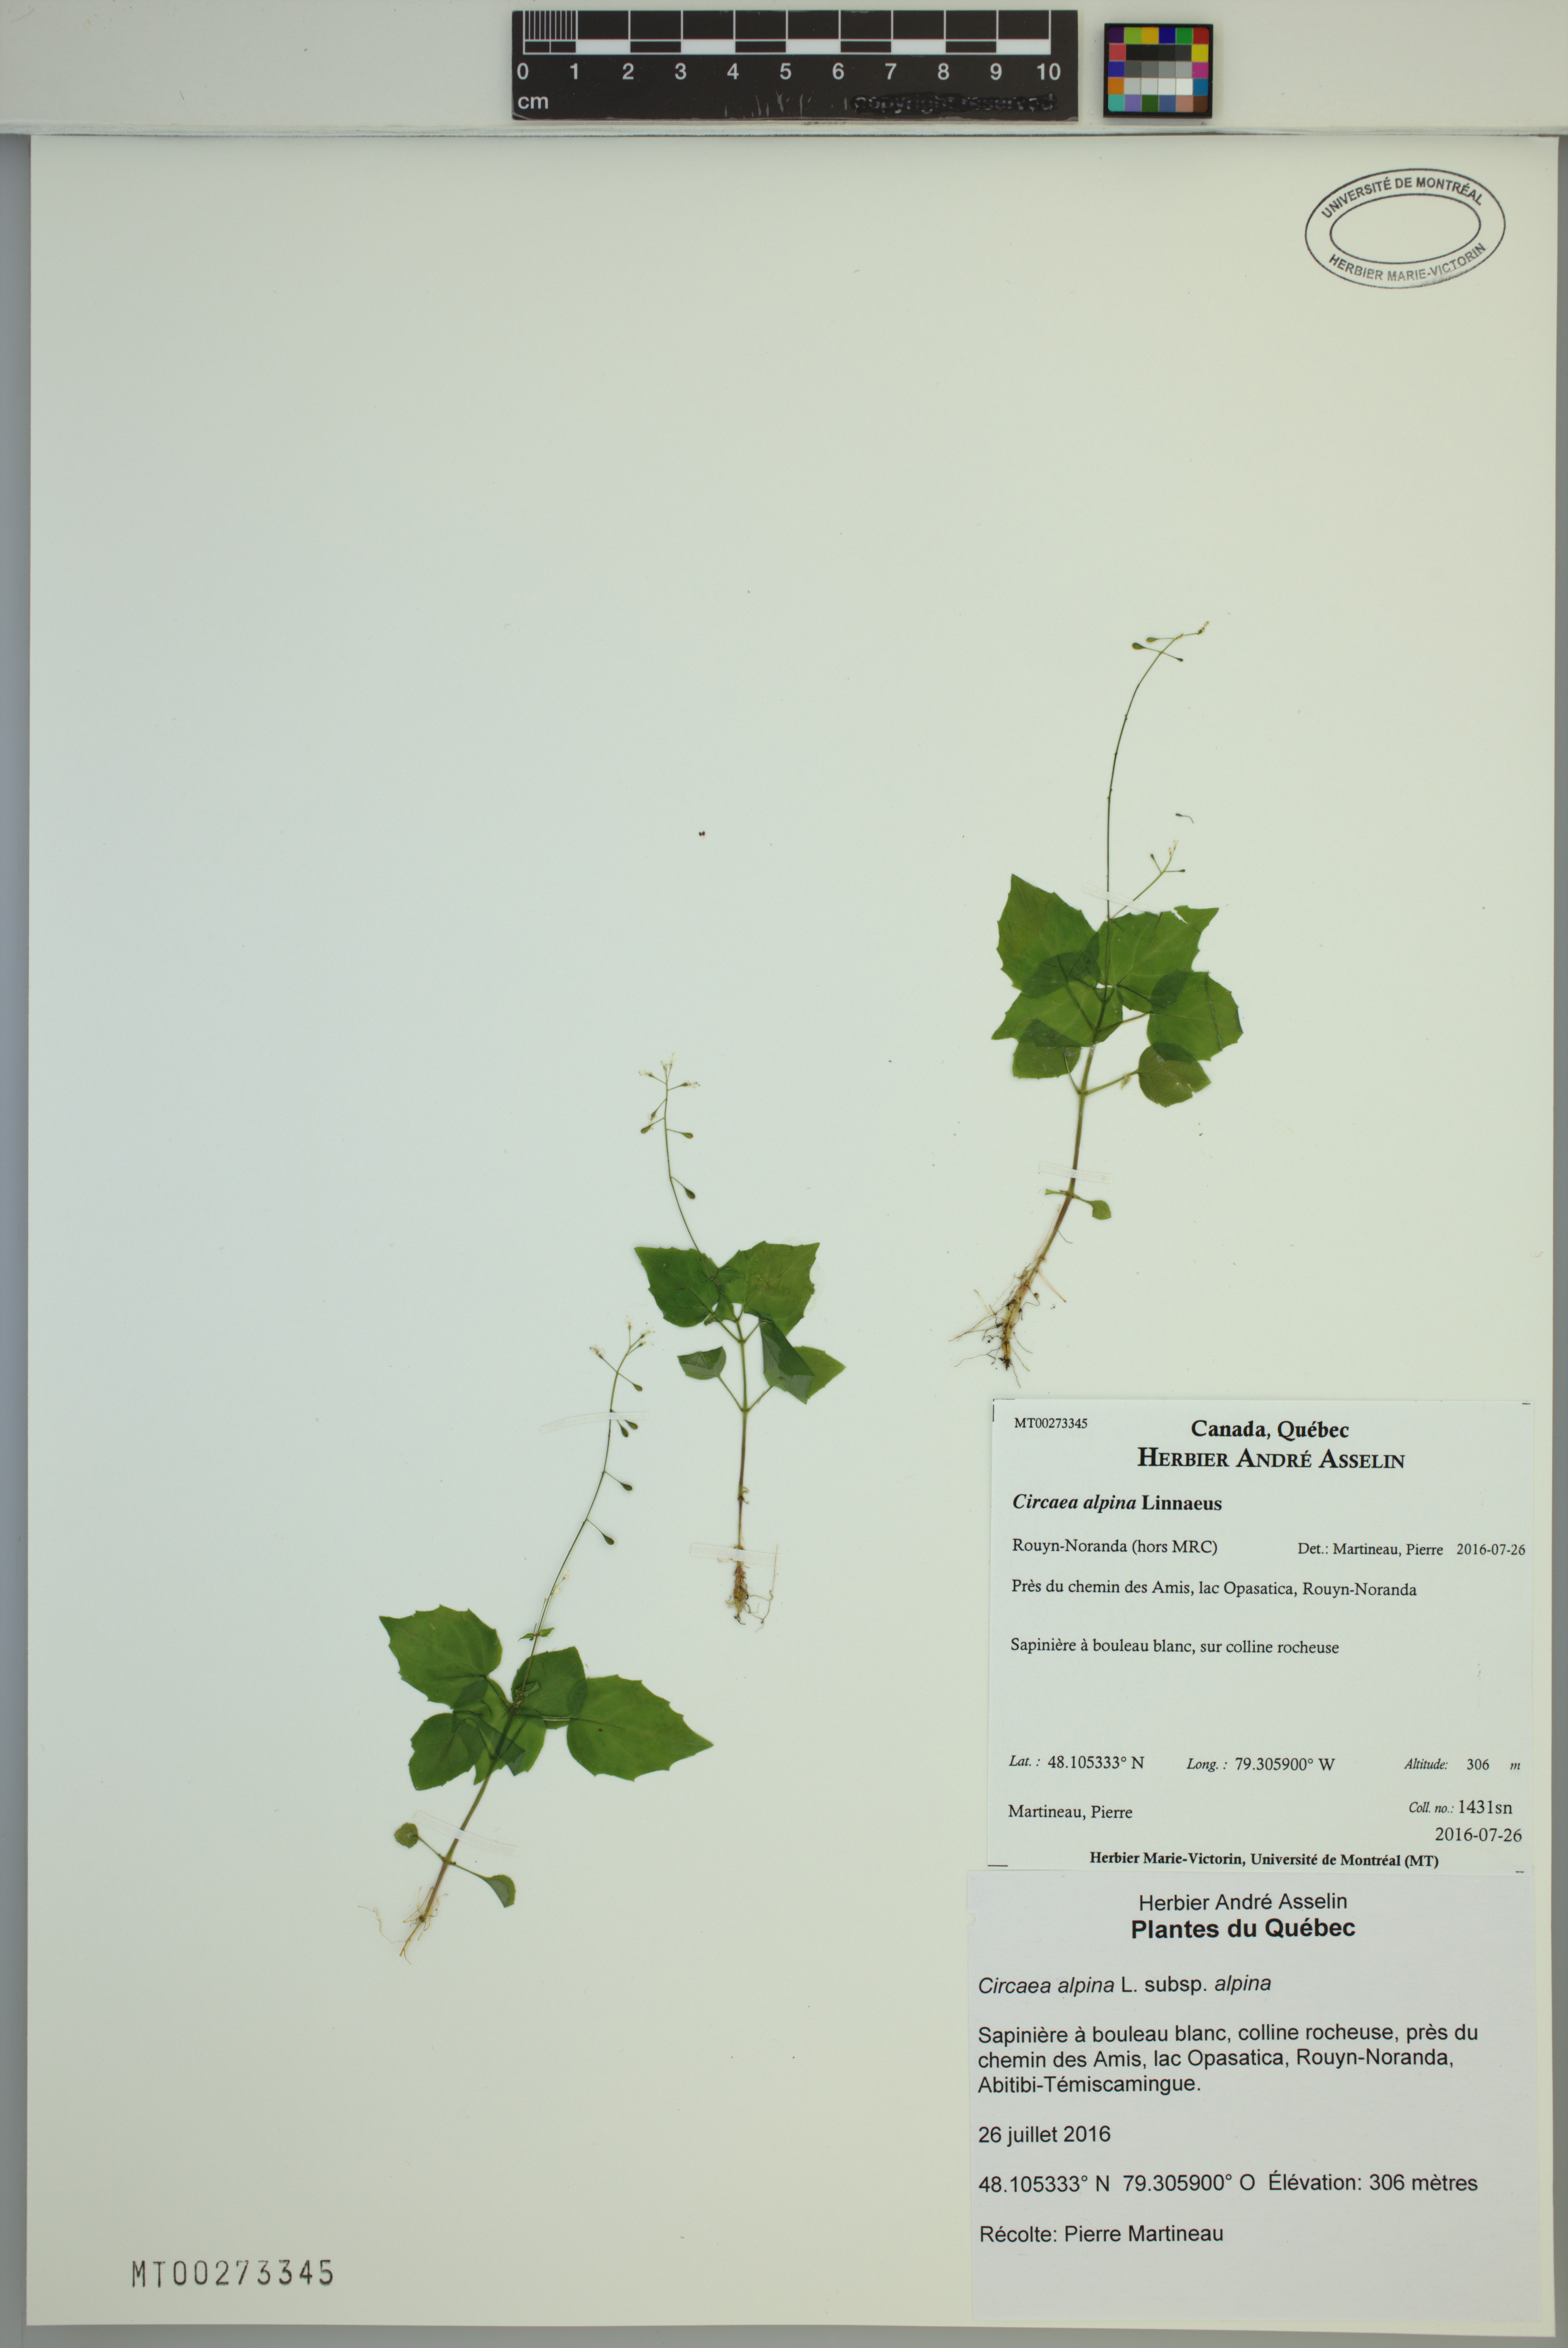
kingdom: Plantae
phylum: Tracheophyta
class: Magnoliopsida
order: Myrtales
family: Onagraceae
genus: Circaea
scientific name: Circaea alpina
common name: Alpine enchanter's-nightshade
